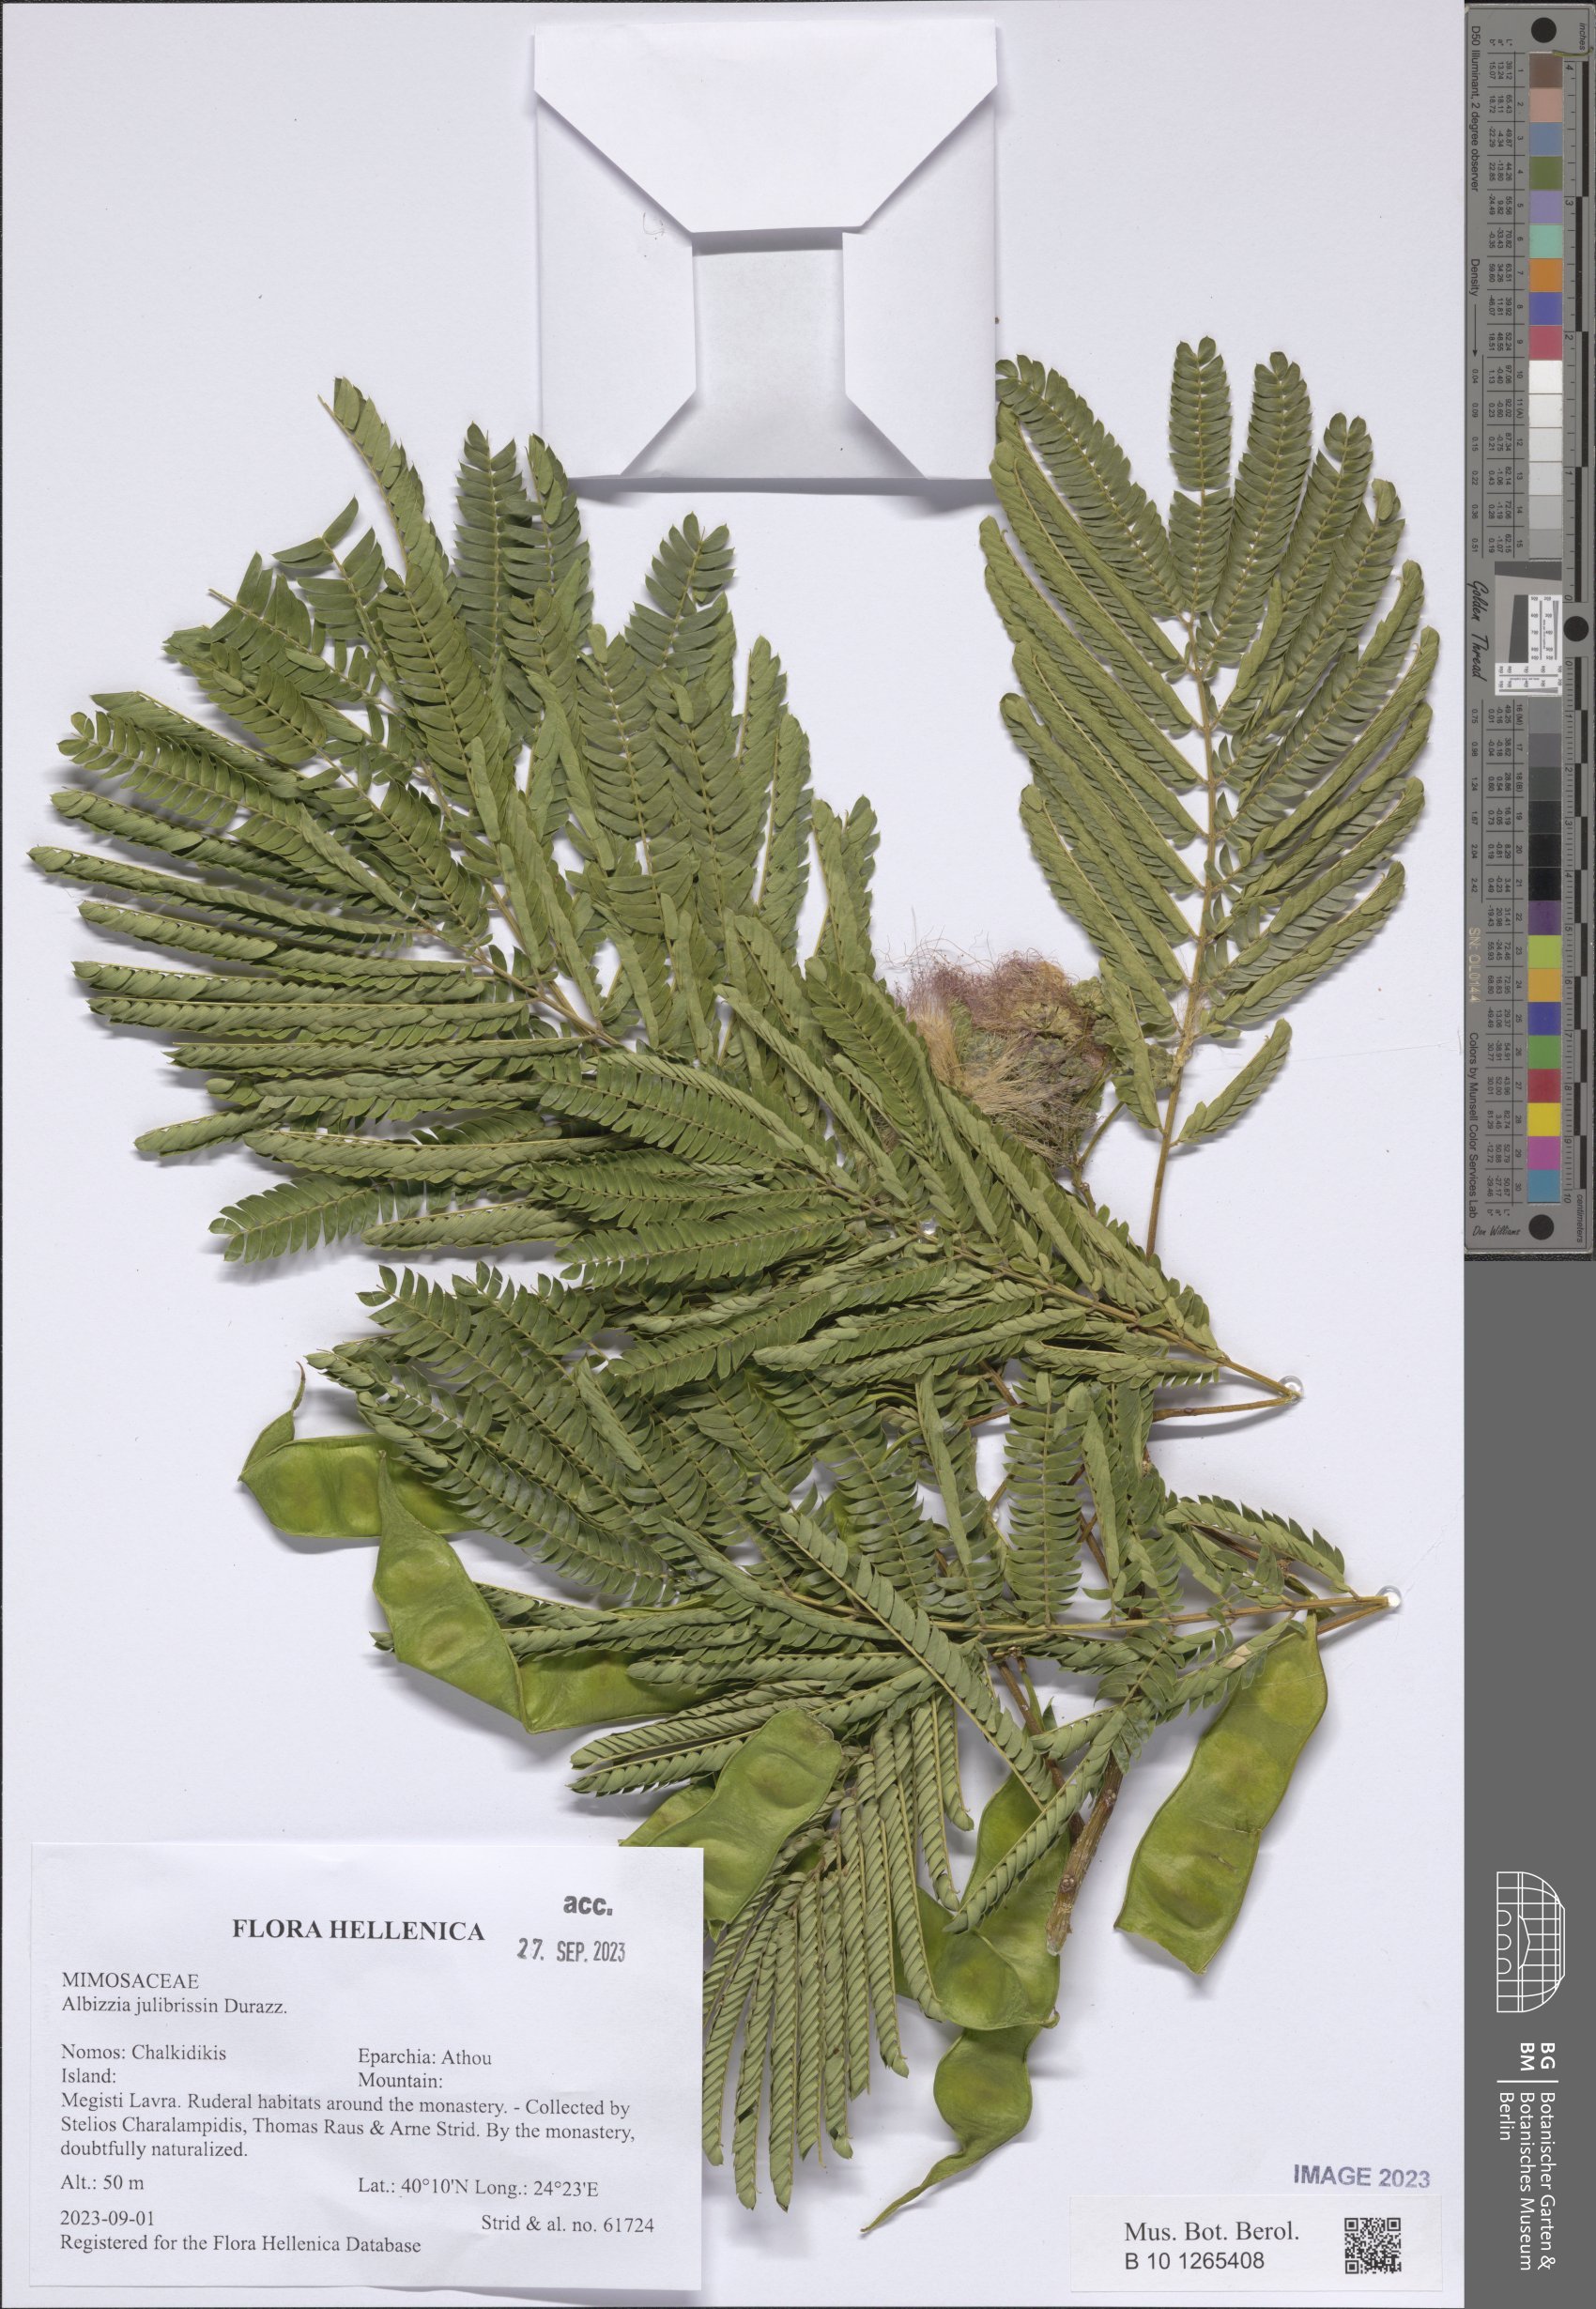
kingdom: Plantae
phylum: Tracheophyta
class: Magnoliopsida
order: Fabales
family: Fabaceae
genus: Albizia
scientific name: Albizia julibrissin
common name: Silktree
